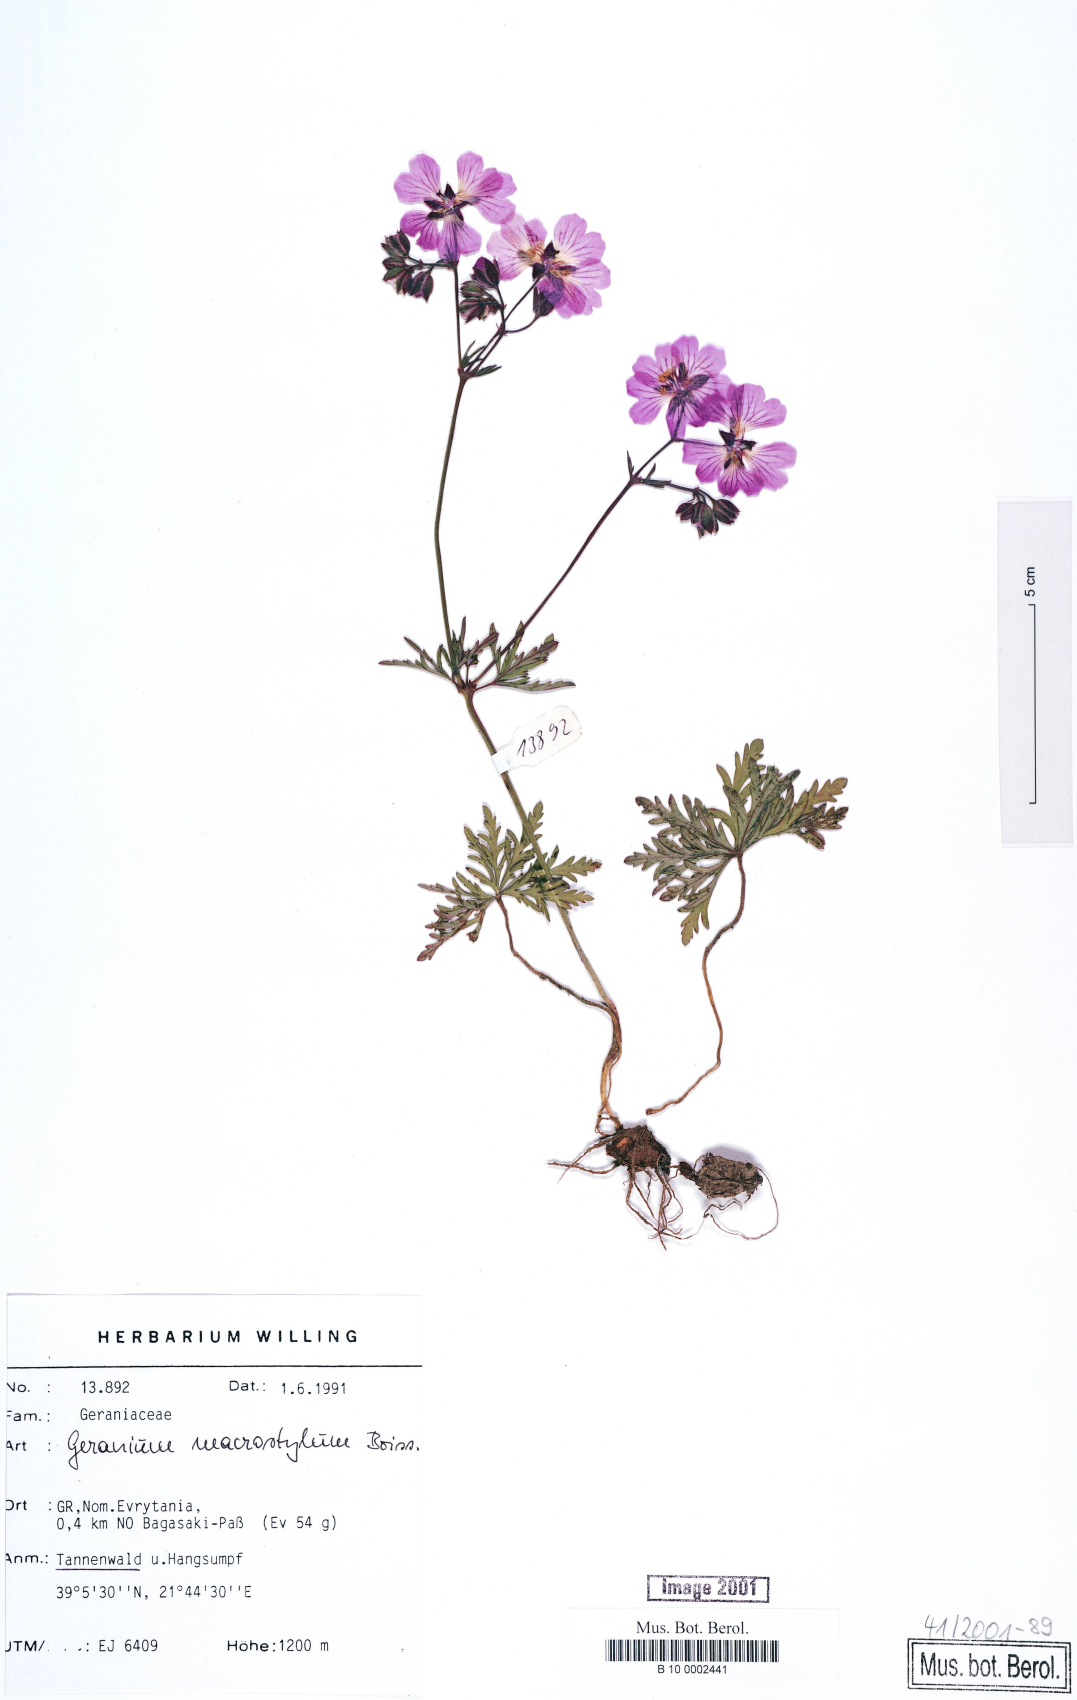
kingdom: Plantae
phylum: Tracheophyta
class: Magnoliopsida
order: Geraniales
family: Geraniaceae
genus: Geranium
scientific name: Geranium macrostylum
